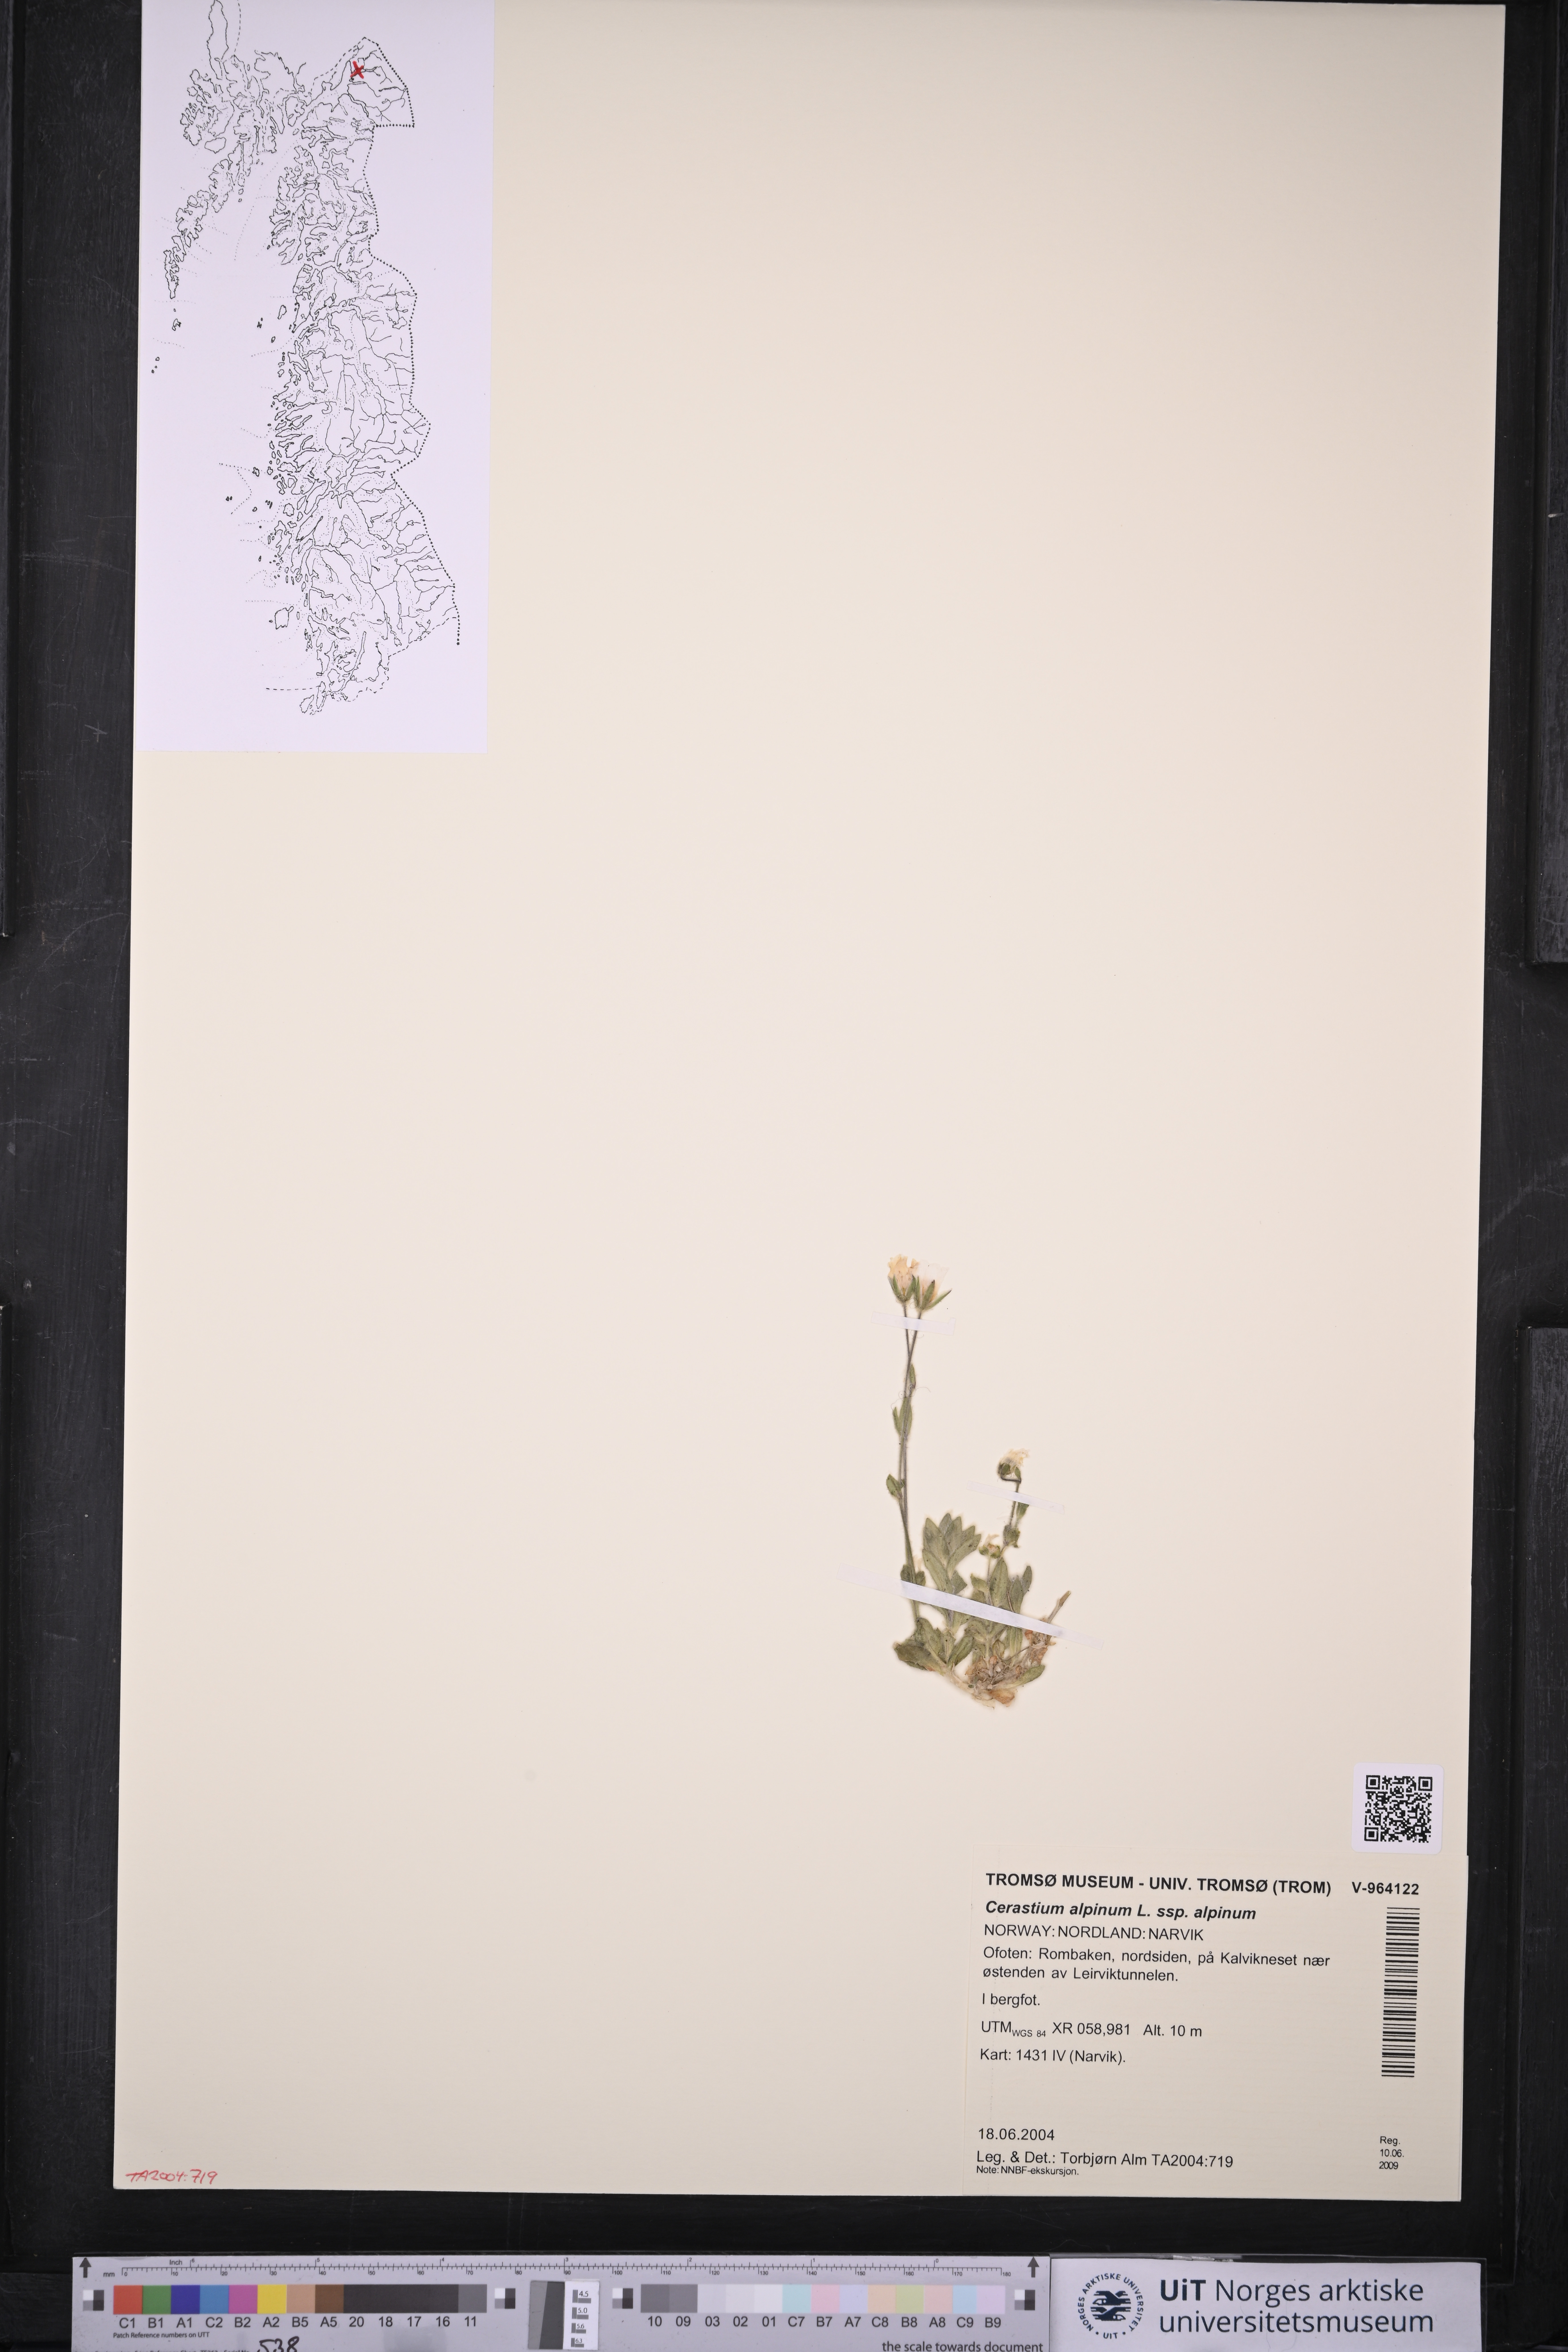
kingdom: Plantae
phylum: Tracheophyta
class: Magnoliopsida
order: Caryophyllales
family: Caryophyllaceae
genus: Cerastium
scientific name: Cerastium alpinum
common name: Alpine mouse-ear
